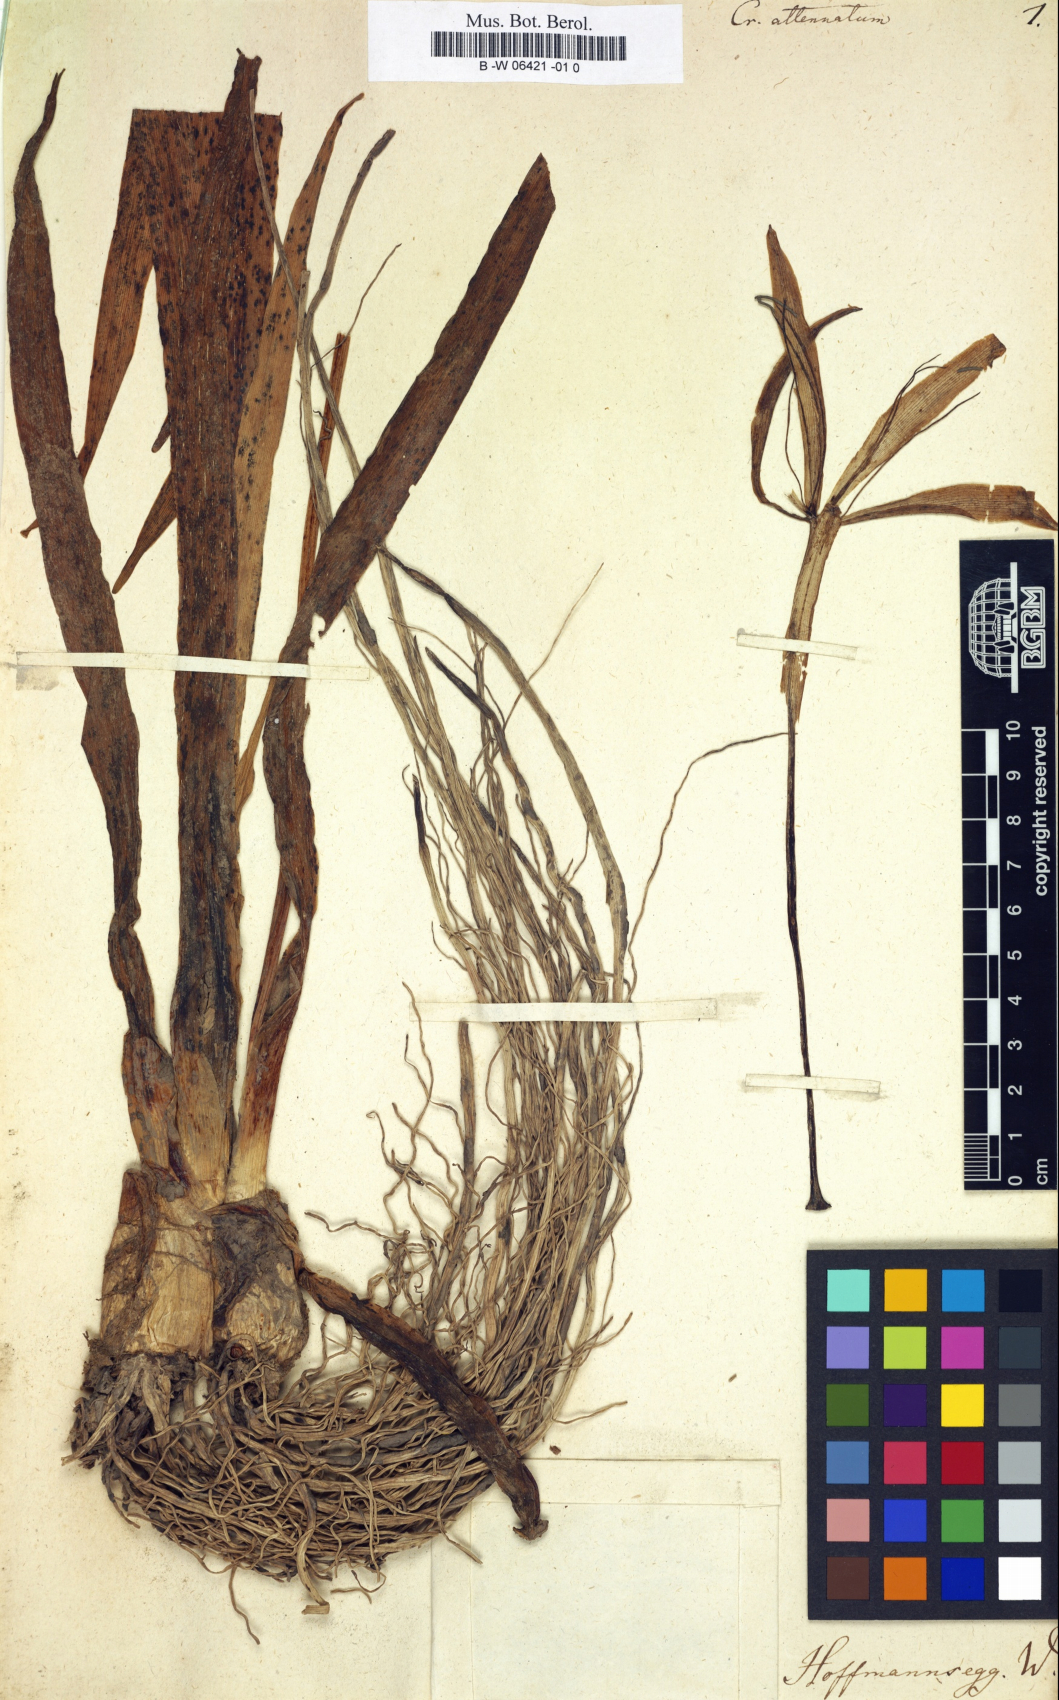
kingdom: Plantae
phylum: Tracheophyta
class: Liliopsida
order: Asparagales
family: Amaryllidaceae
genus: Crinum
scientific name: Crinum erubescens
